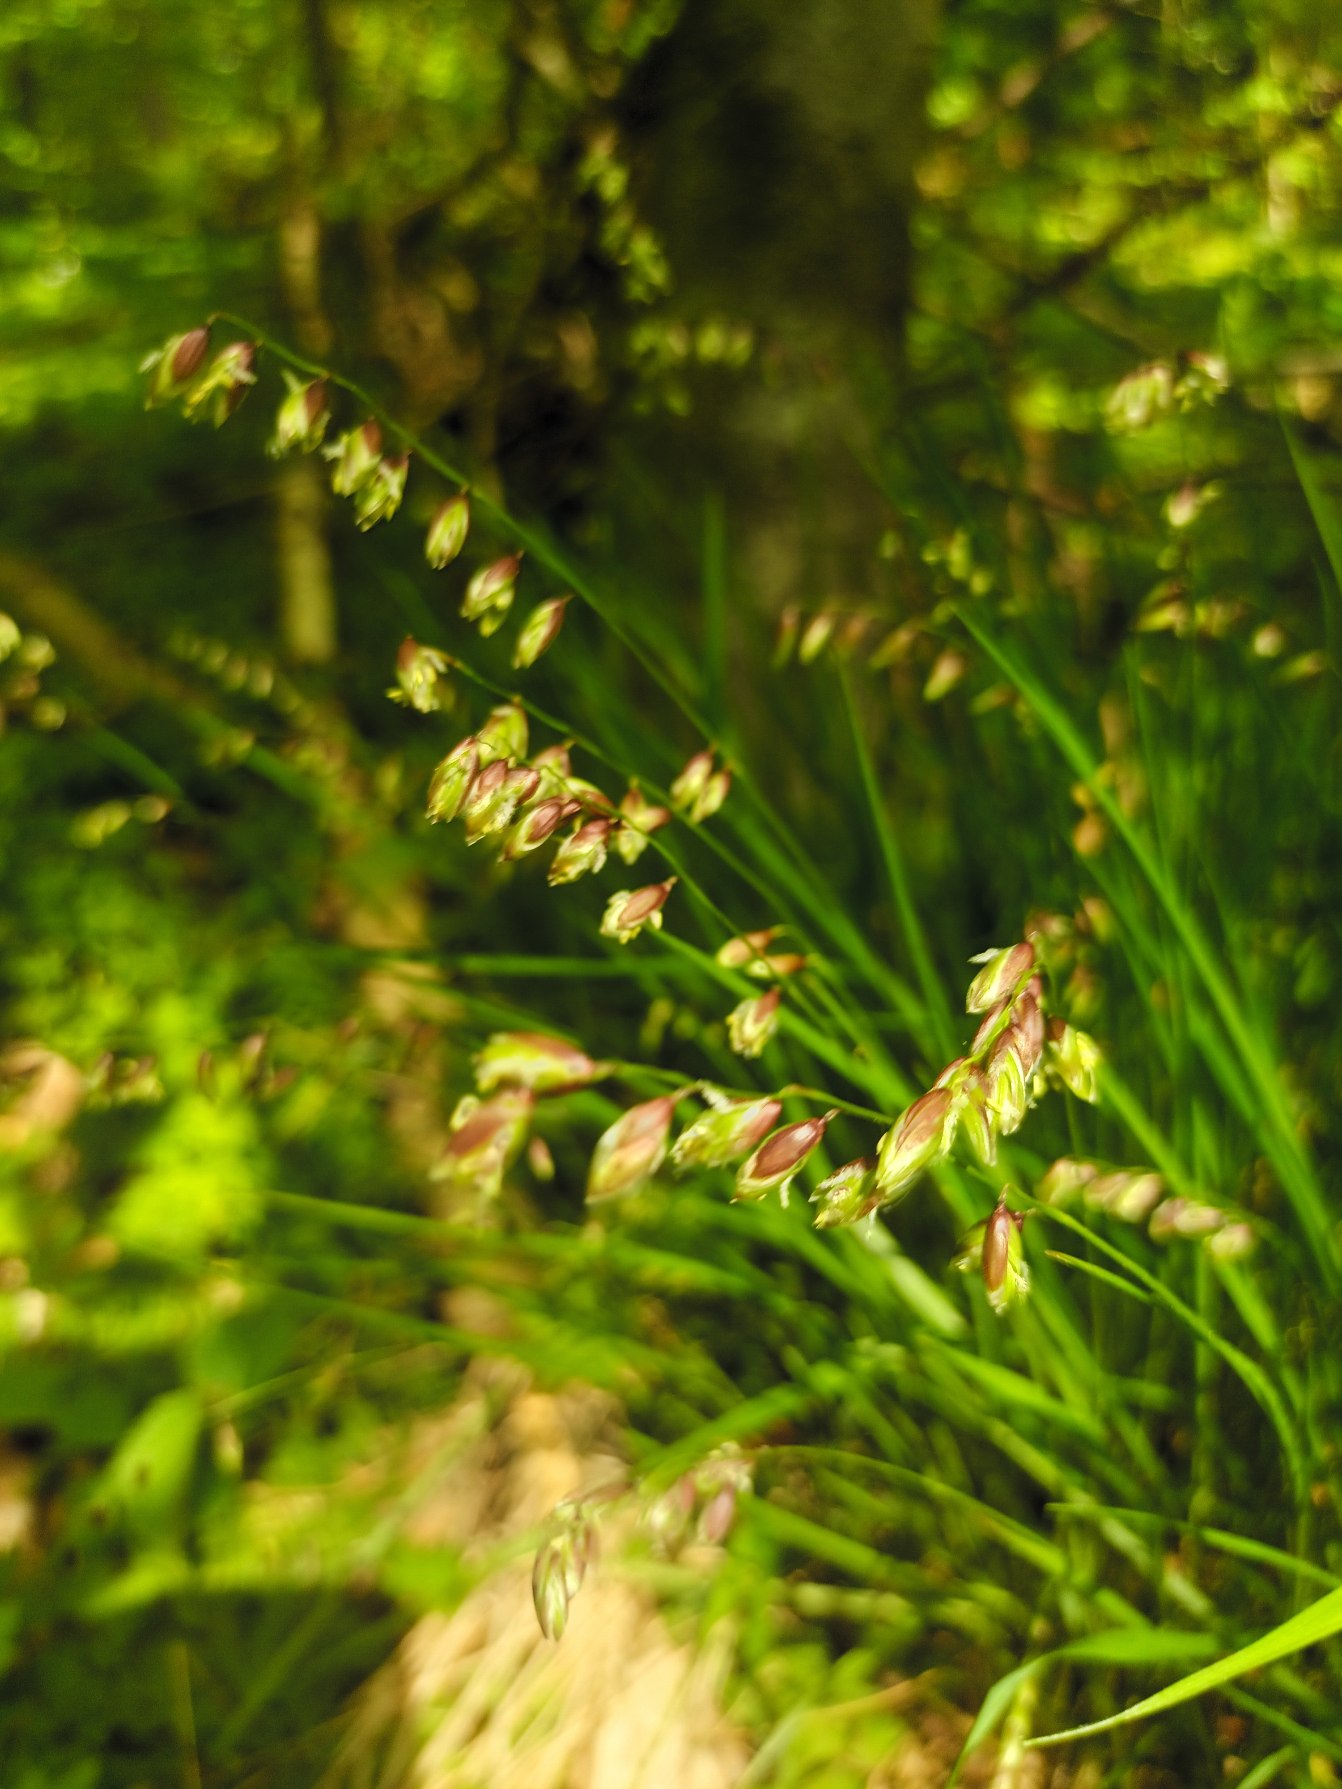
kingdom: Plantae
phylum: Tracheophyta
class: Liliopsida
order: Poales
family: Poaceae
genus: Melica
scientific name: Melica nutans
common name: Nikkende flitteraks
